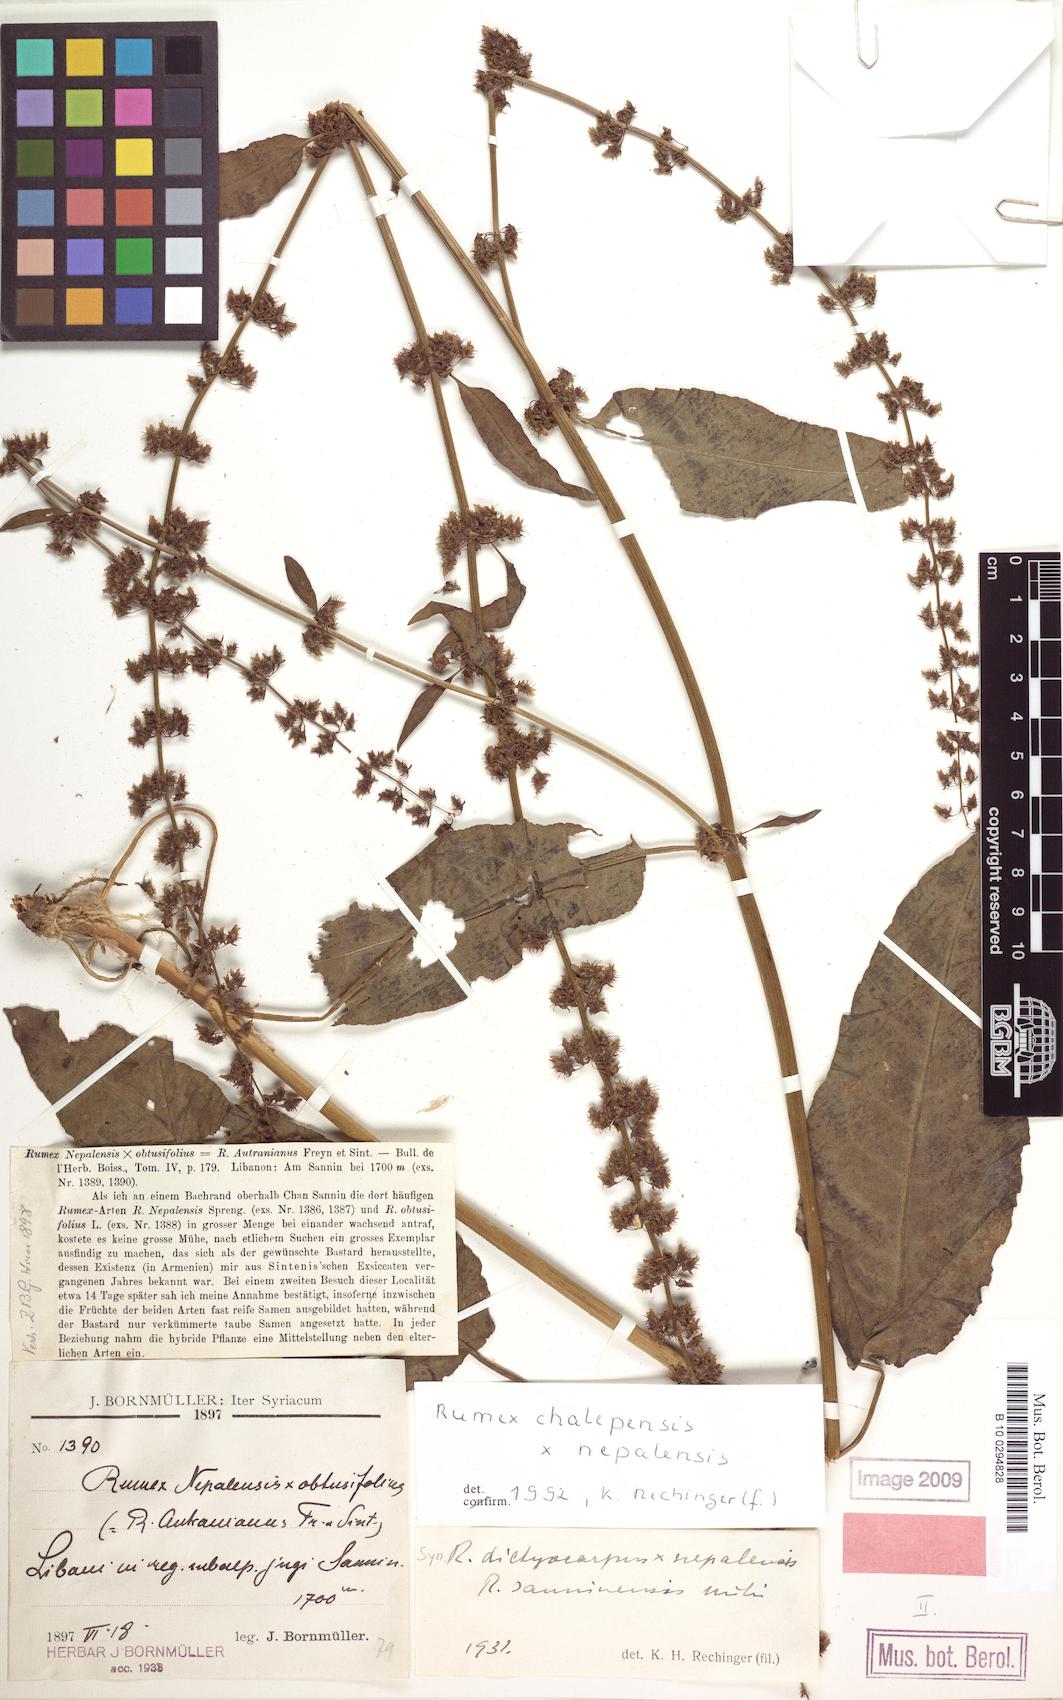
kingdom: Plantae
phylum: Tracheophyta
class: Magnoliopsida
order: Caryophyllales
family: Polygonaceae
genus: Rumex
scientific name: Rumex chalepensis
